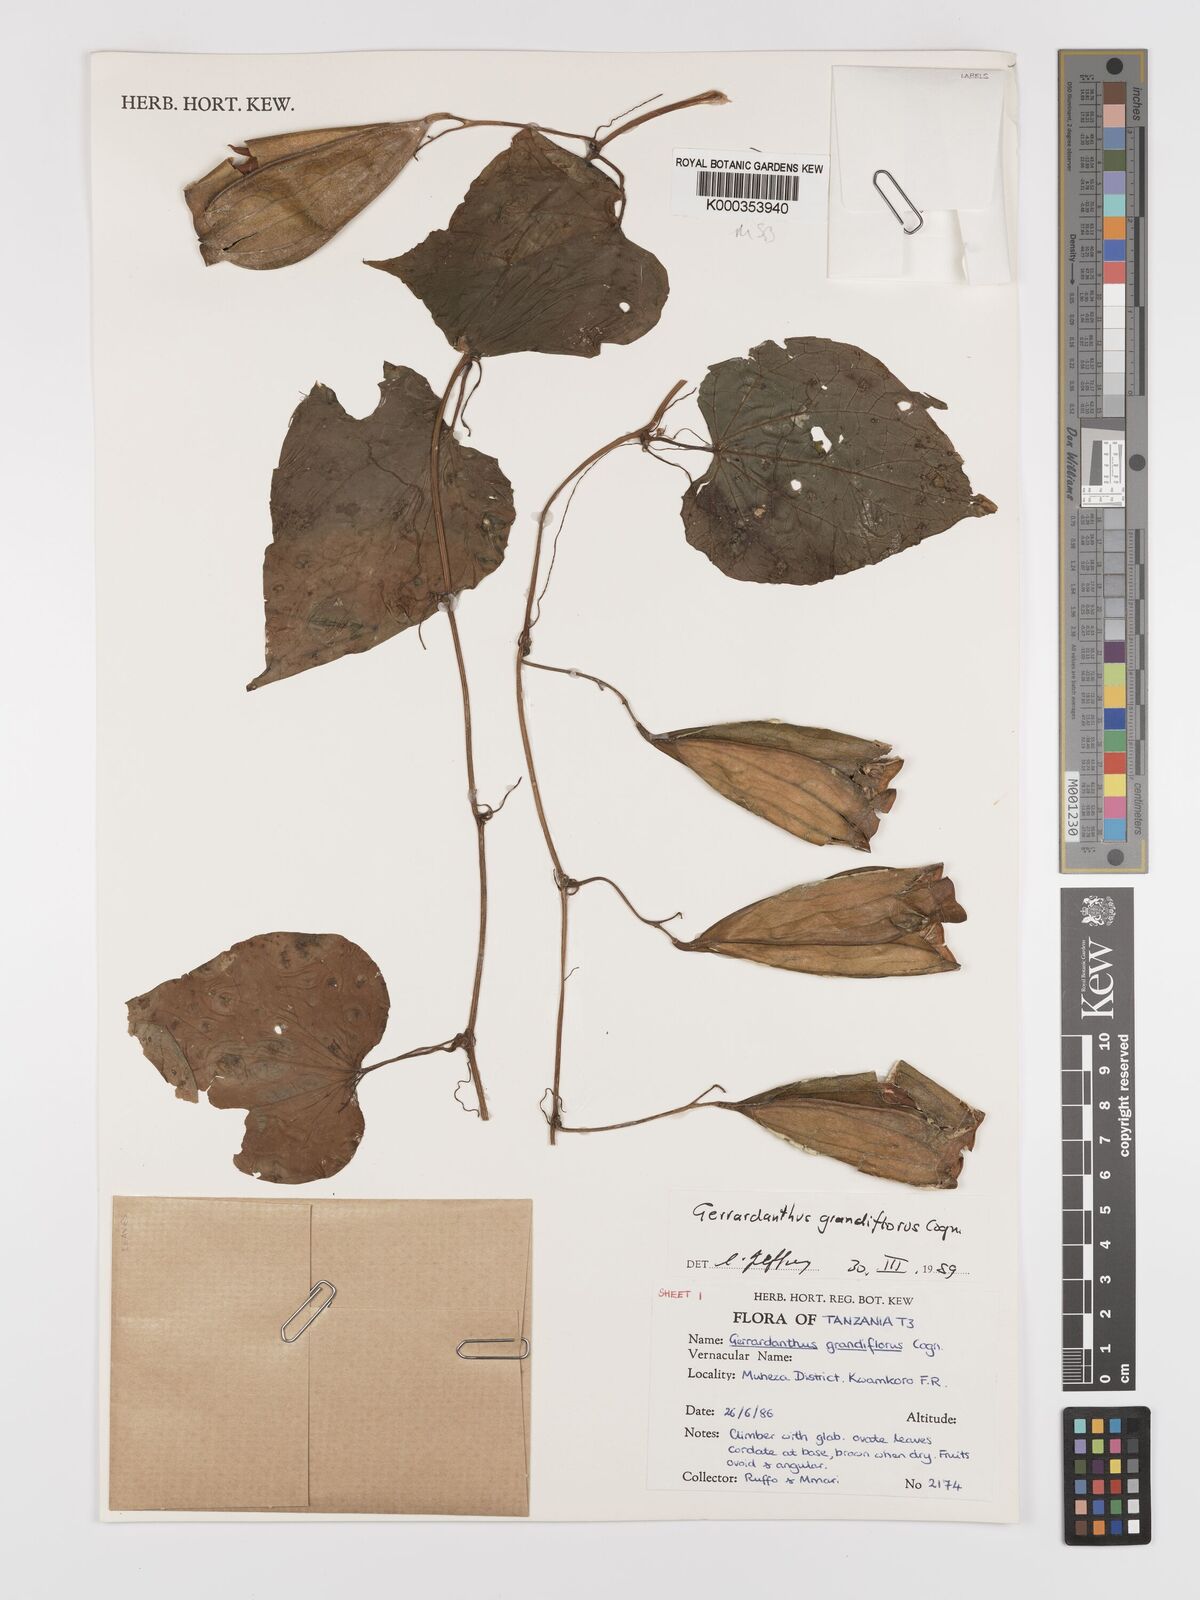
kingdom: Plantae
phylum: Tracheophyta
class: Magnoliopsida
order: Cucurbitales
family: Cucurbitaceae
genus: Gerrardanthus
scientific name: Gerrardanthus
